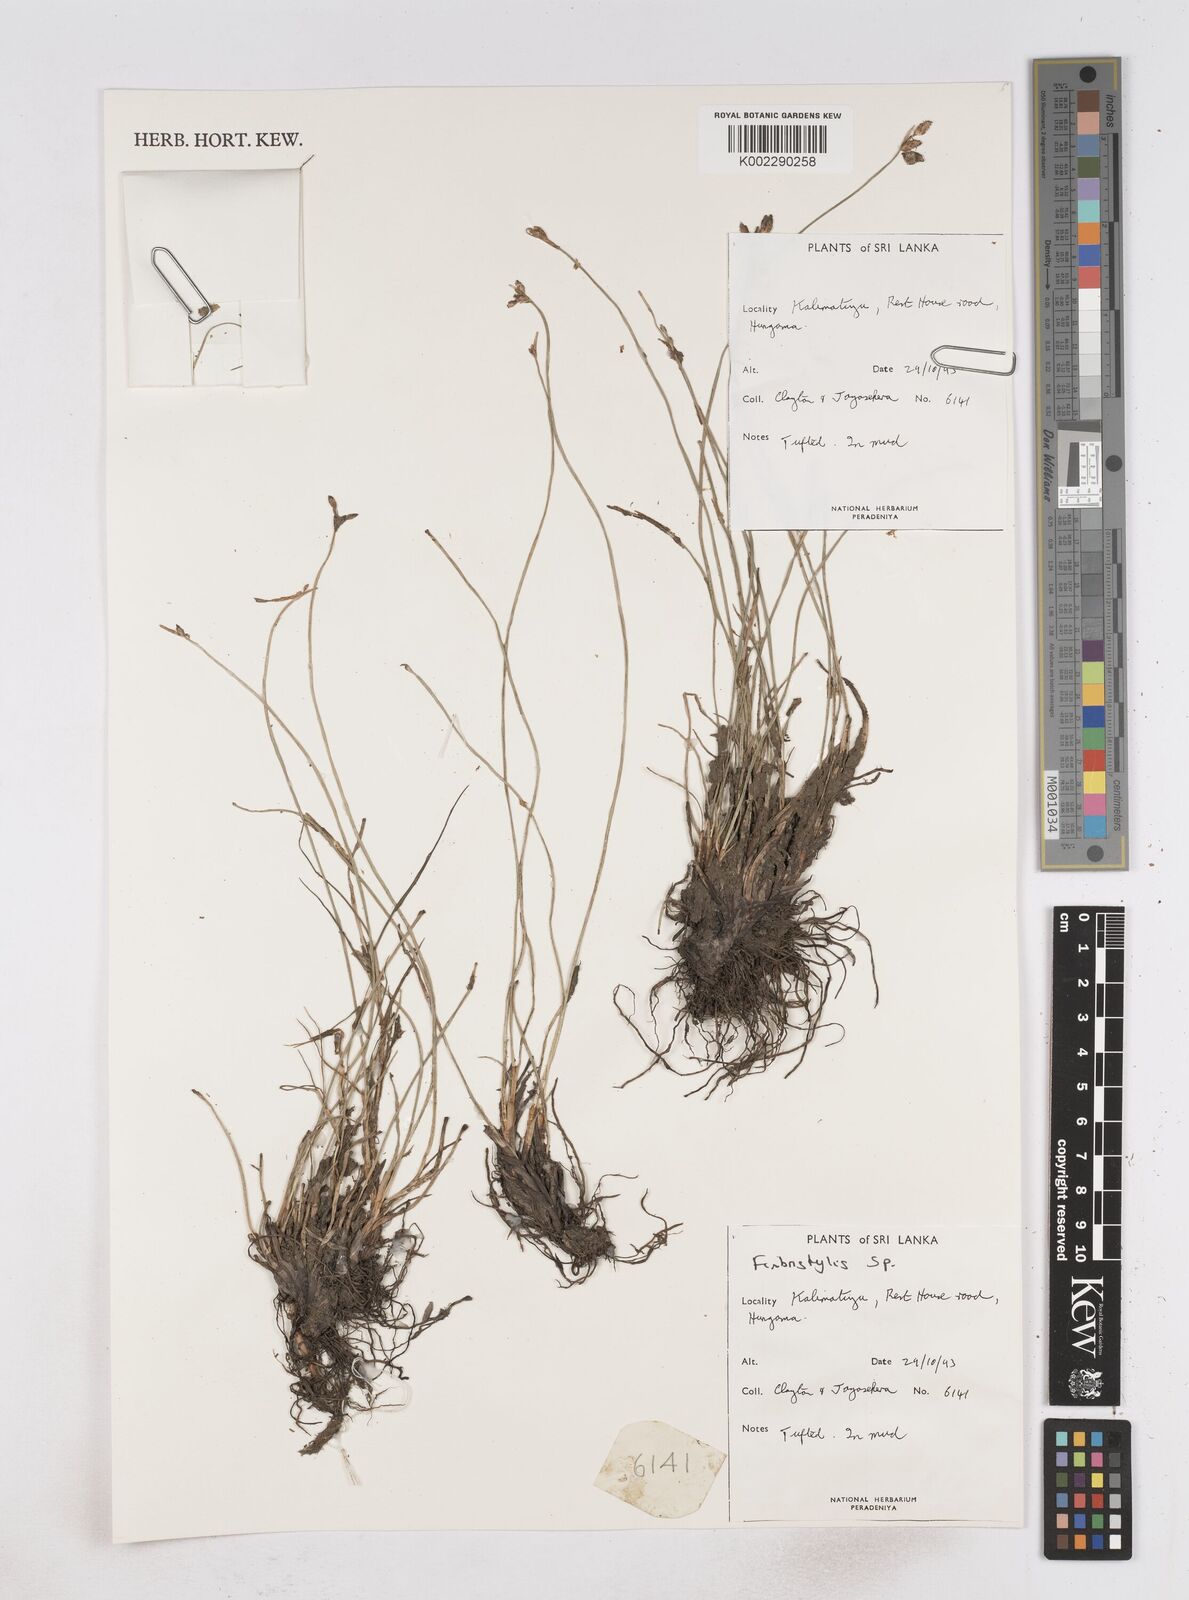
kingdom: Plantae
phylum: Tracheophyta
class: Liliopsida
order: Poales
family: Cyperaceae
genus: Fimbristylis
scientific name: Fimbristylis
